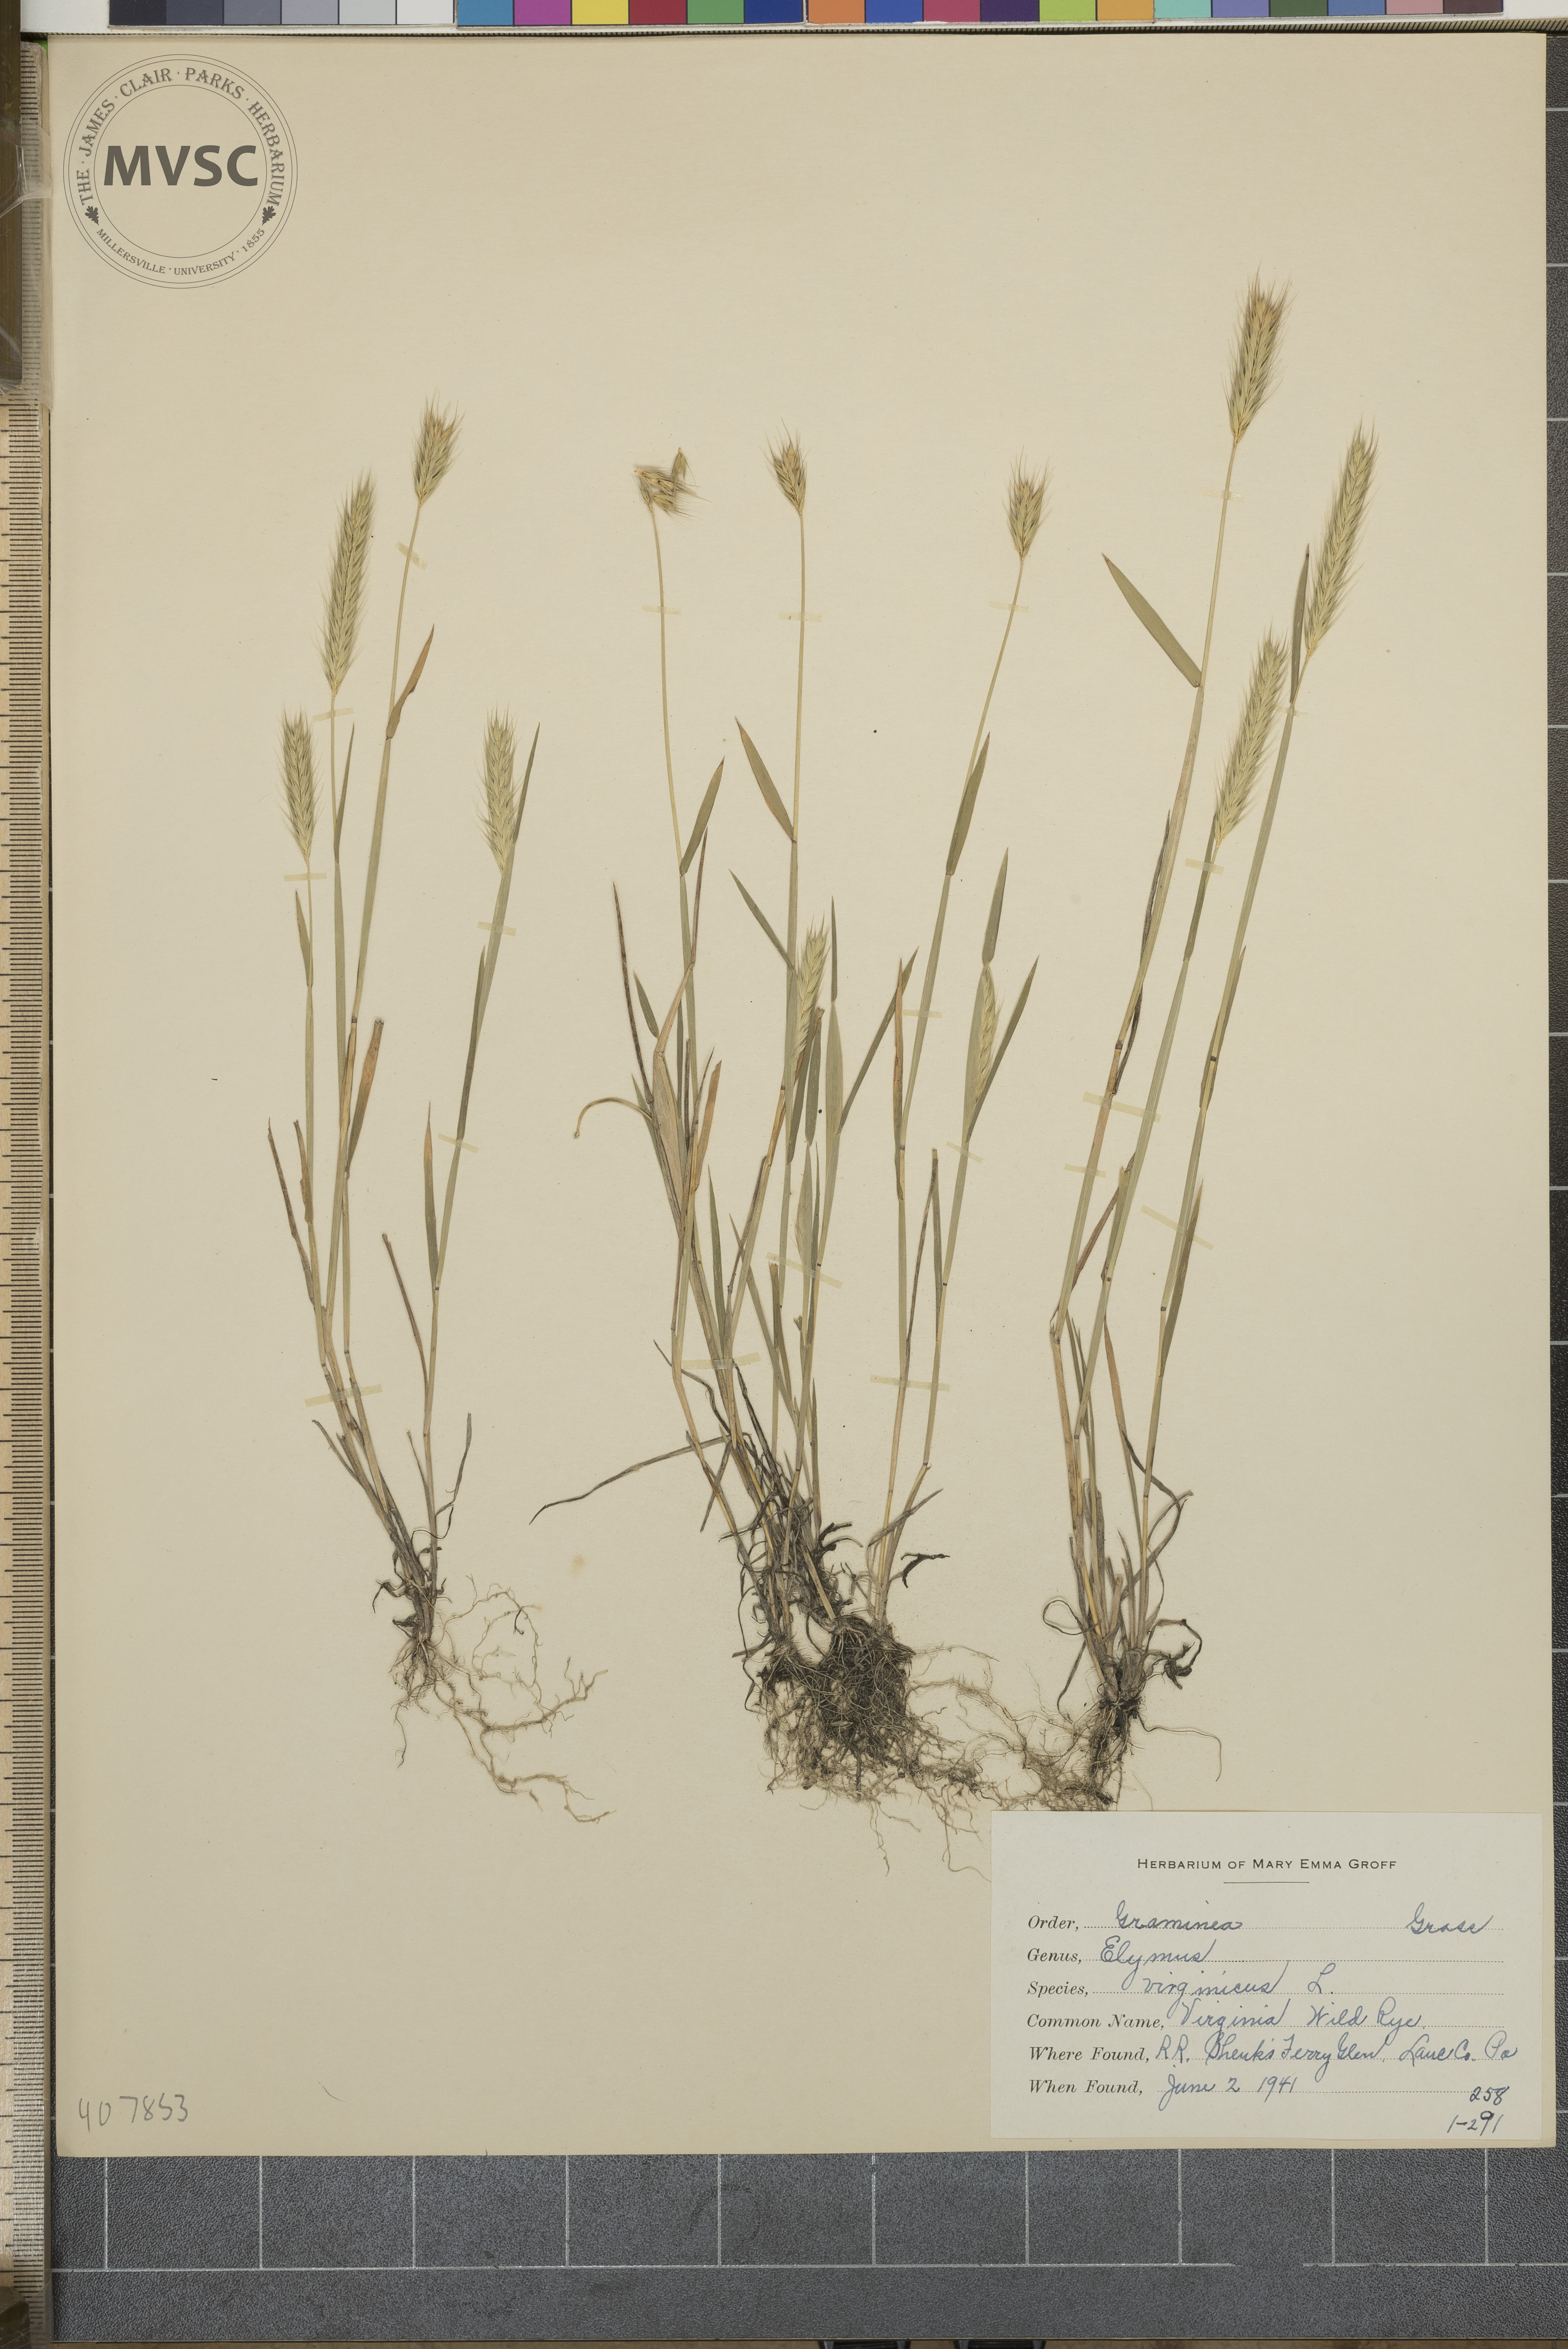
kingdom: Plantae
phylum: Tracheophyta
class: Liliopsida
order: Poales
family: Poaceae
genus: Elymus
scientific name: Elymus virginicus
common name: Common eastern wildrye
